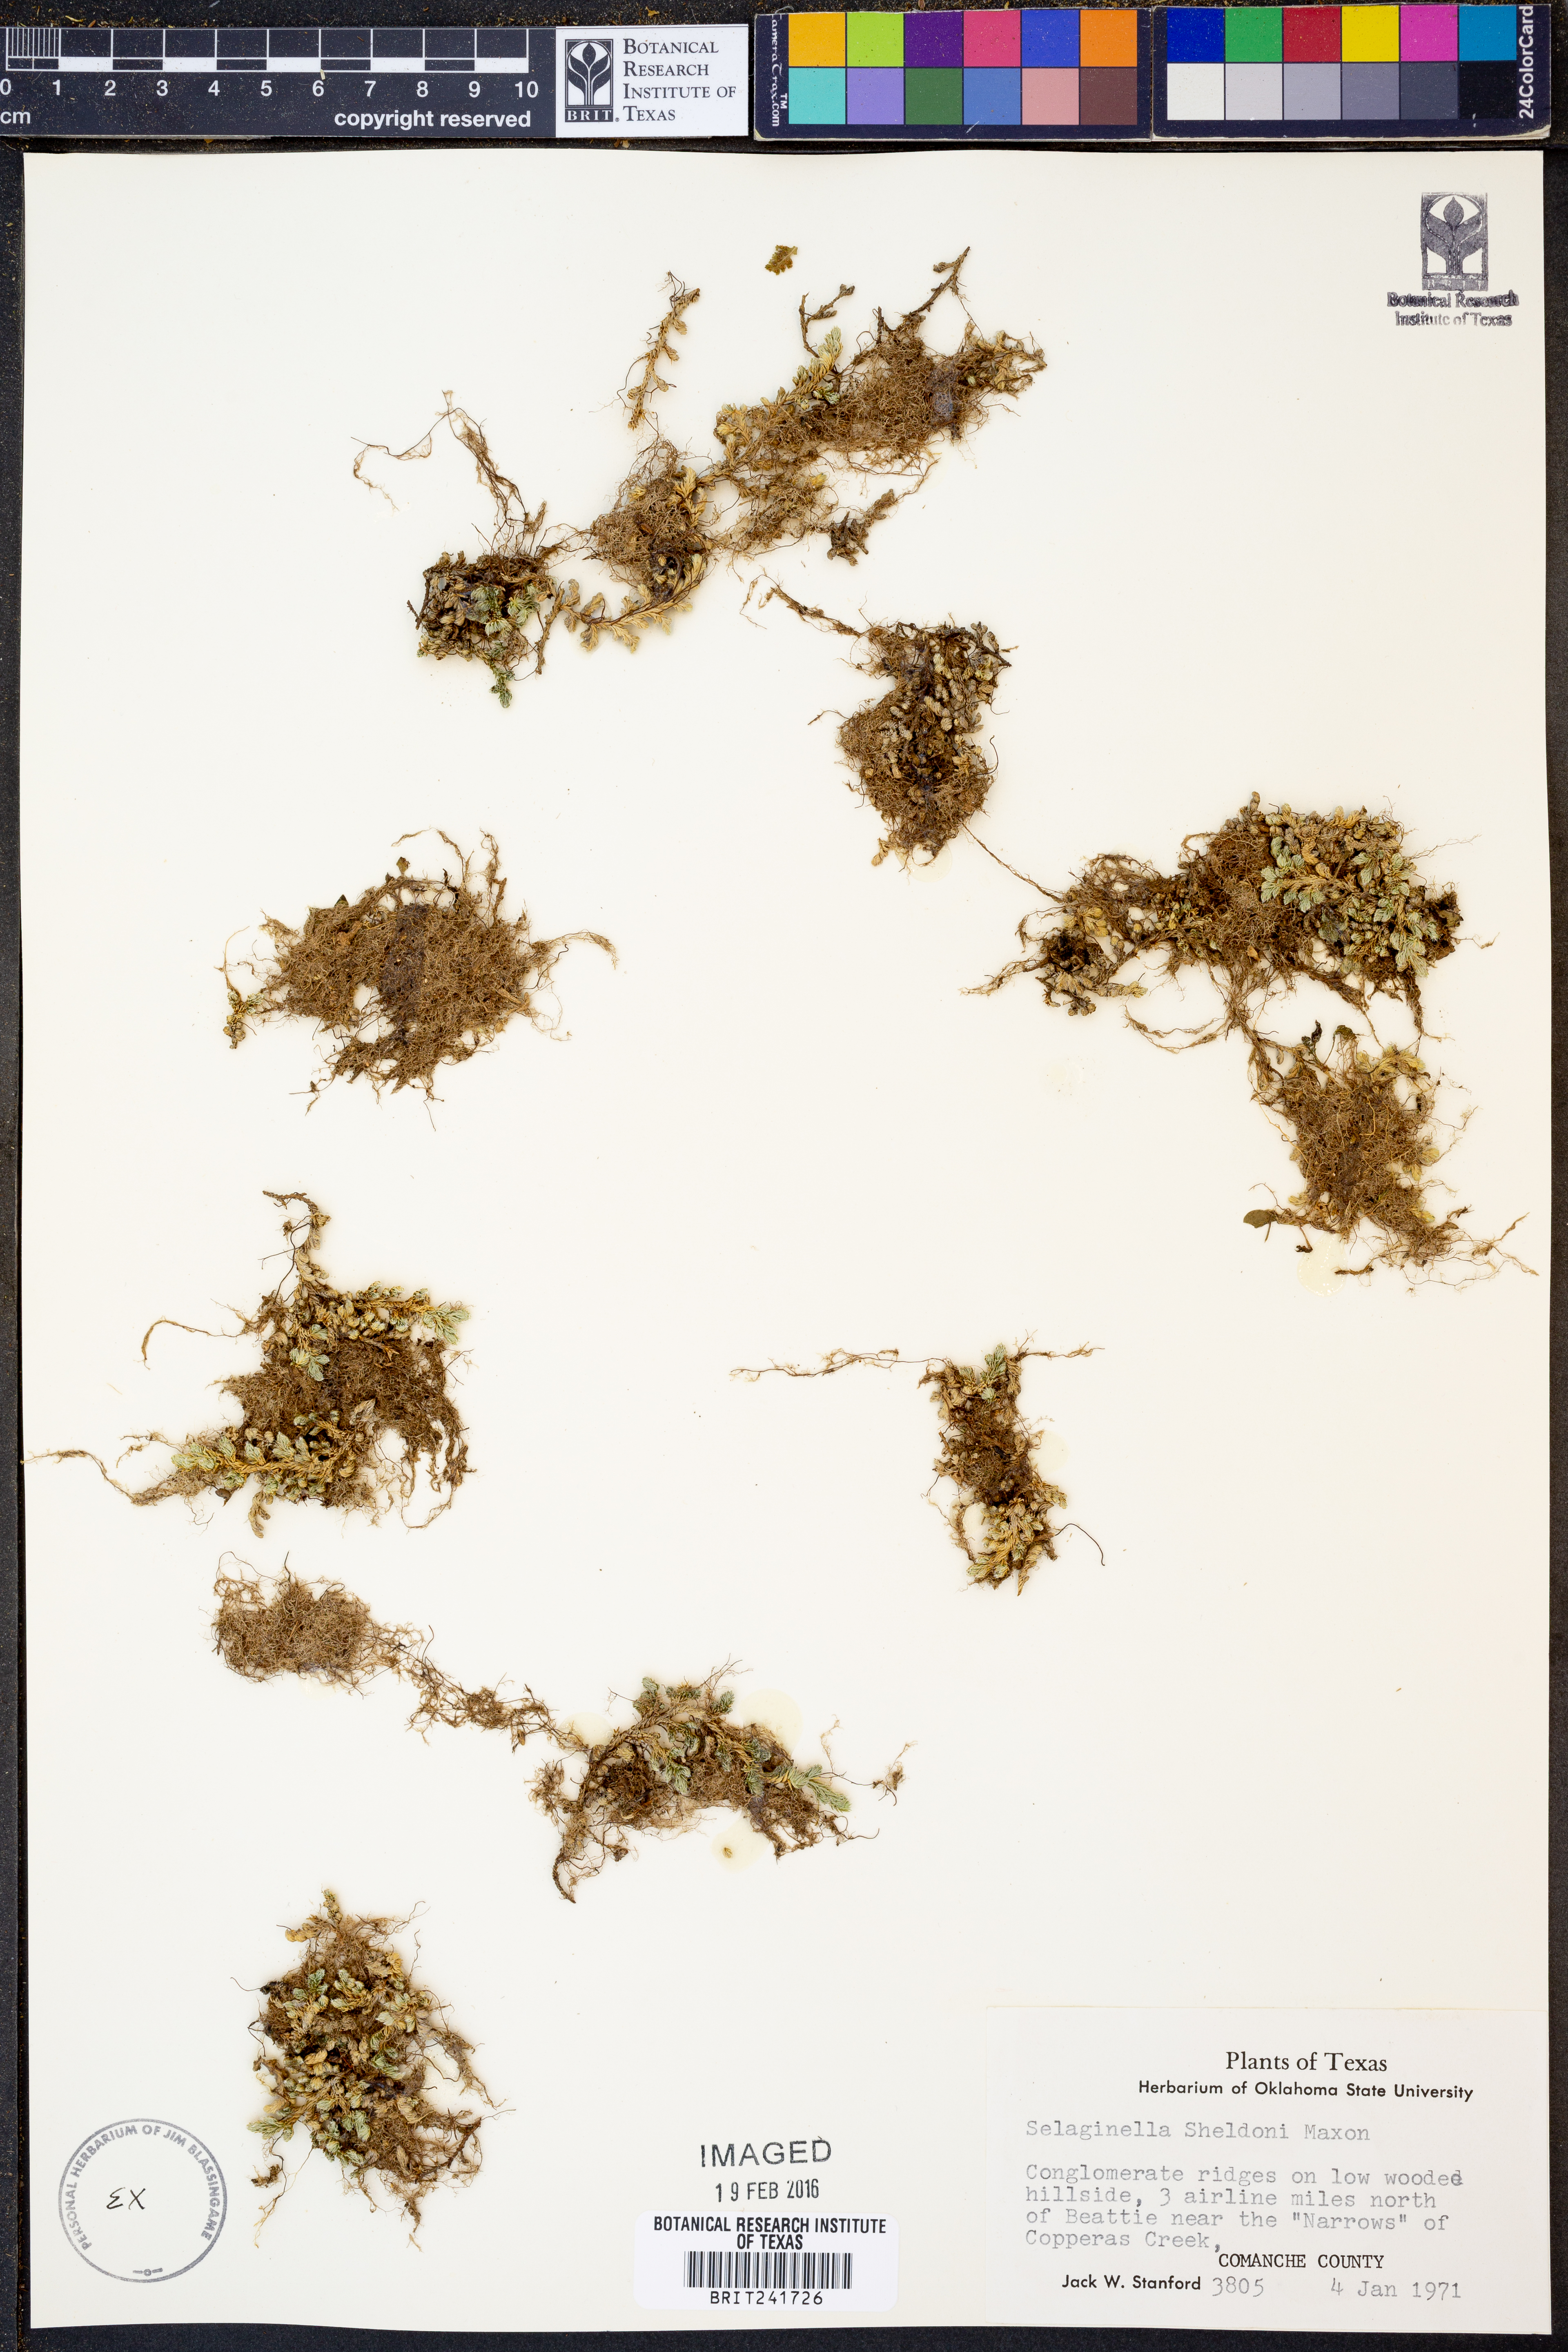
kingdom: Plantae
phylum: Tracheophyta
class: Lycopodiopsida
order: Selaginellales
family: Selaginellaceae
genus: Selaginella
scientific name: Selaginella peruviana
